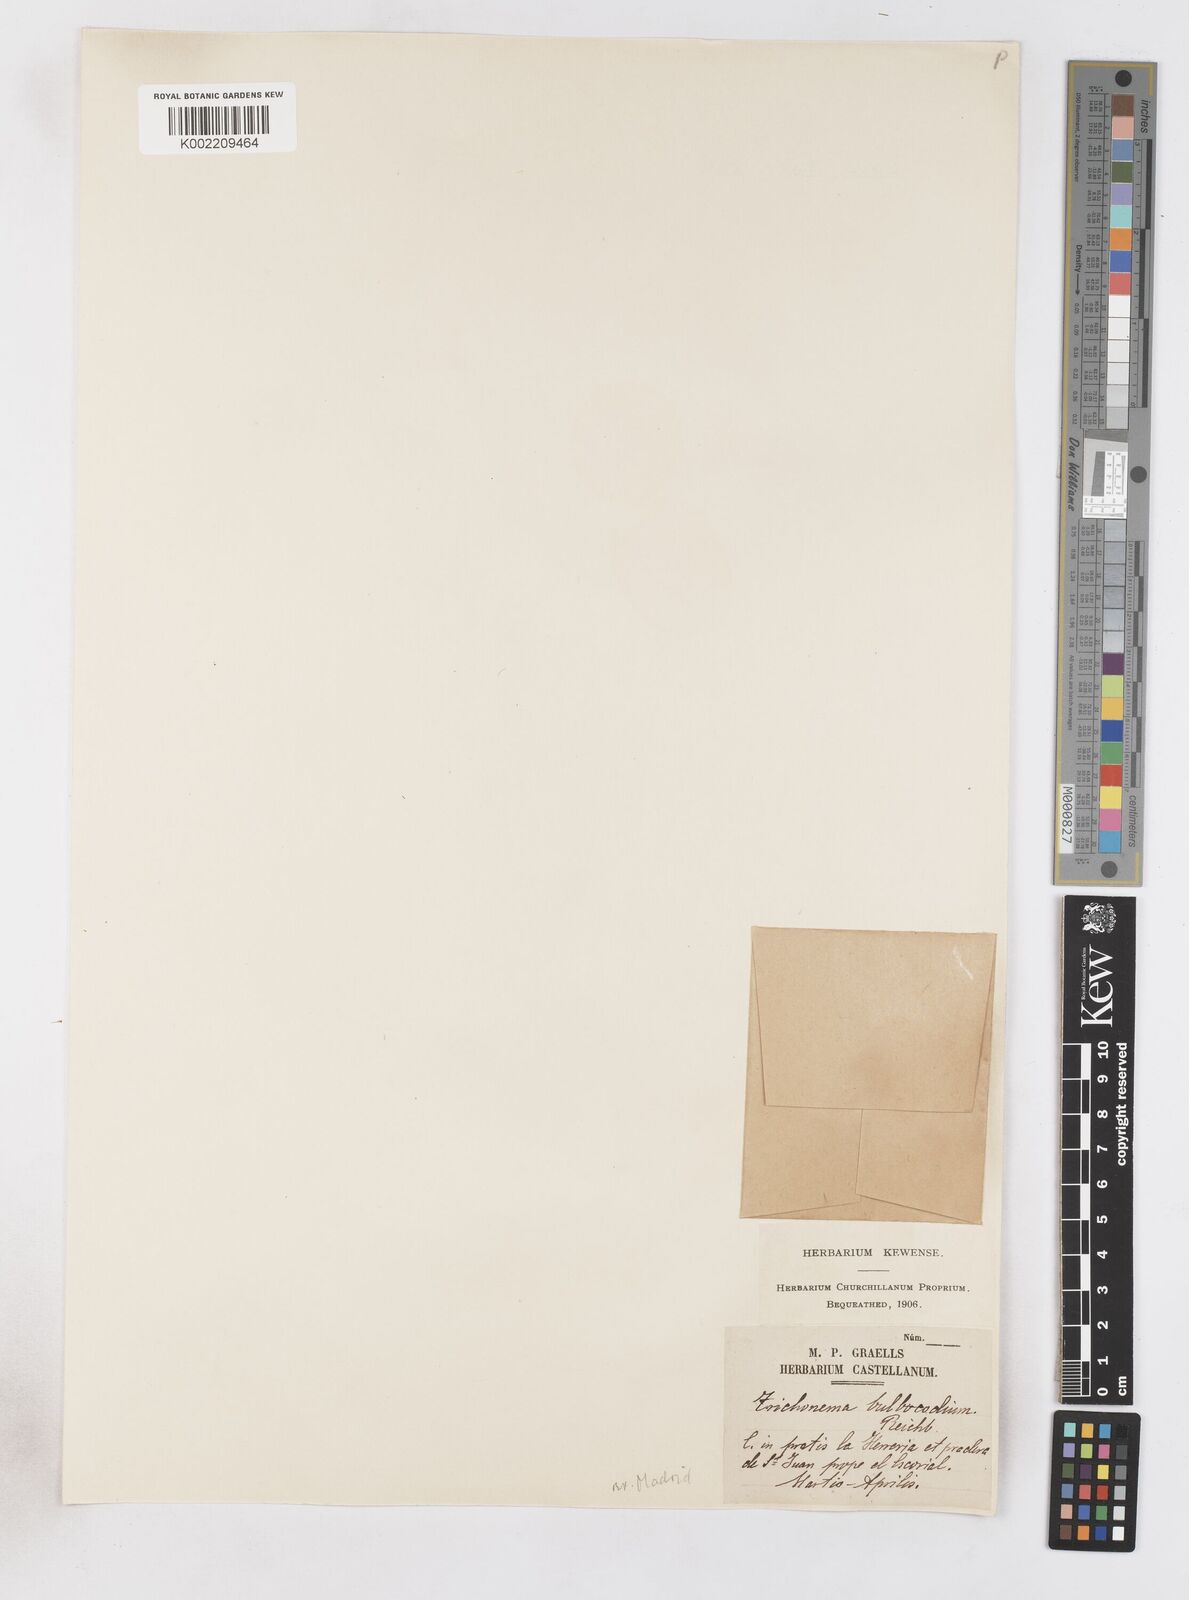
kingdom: Plantae
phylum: Tracheophyta
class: Liliopsida
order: Asparagales
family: Iridaceae
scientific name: Iridaceae
